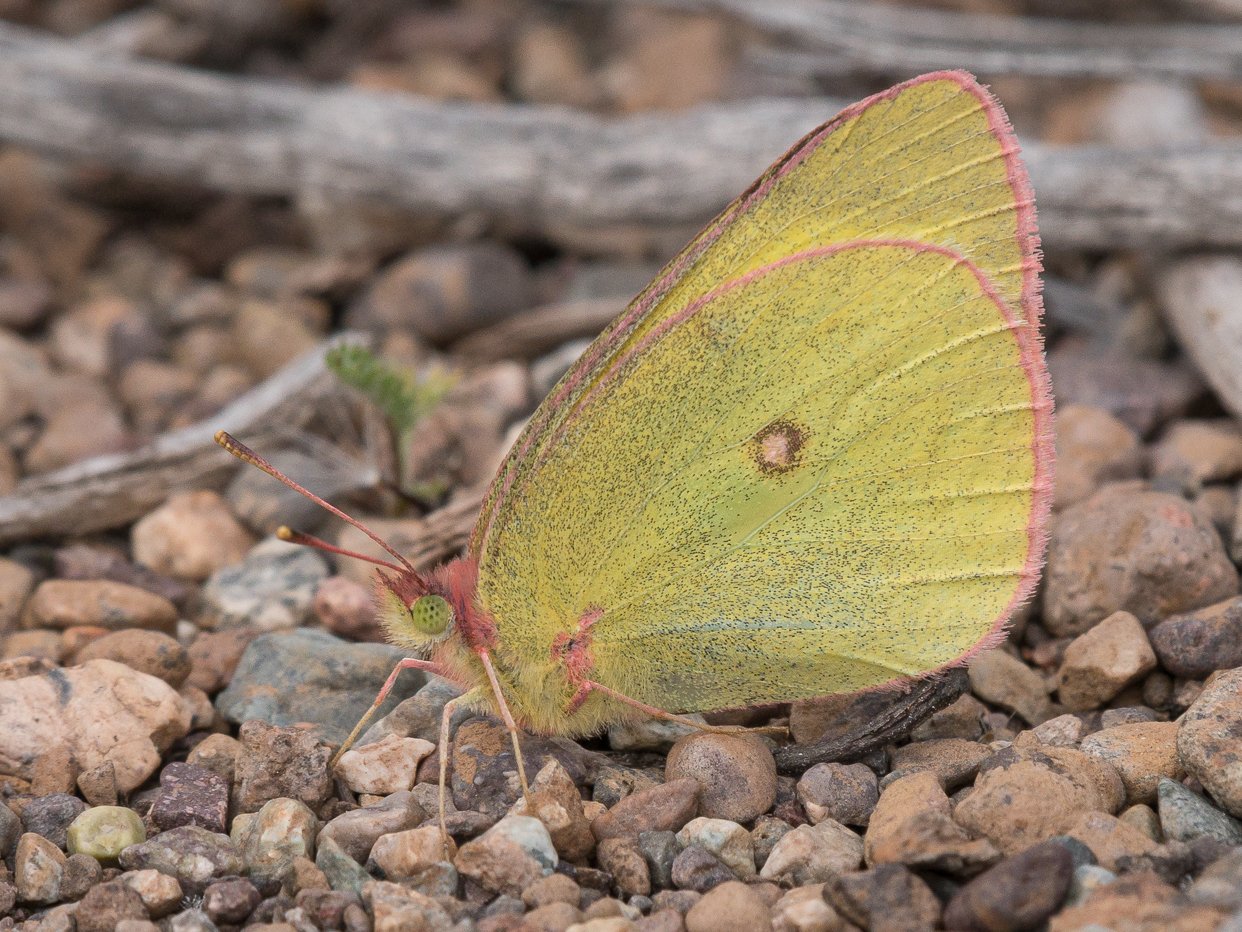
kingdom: Animalia
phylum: Arthropoda
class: Insecta
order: Lepidoptera
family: Pieridae
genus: Colias
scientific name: Colias interior
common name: Pink-edged Sulphur
